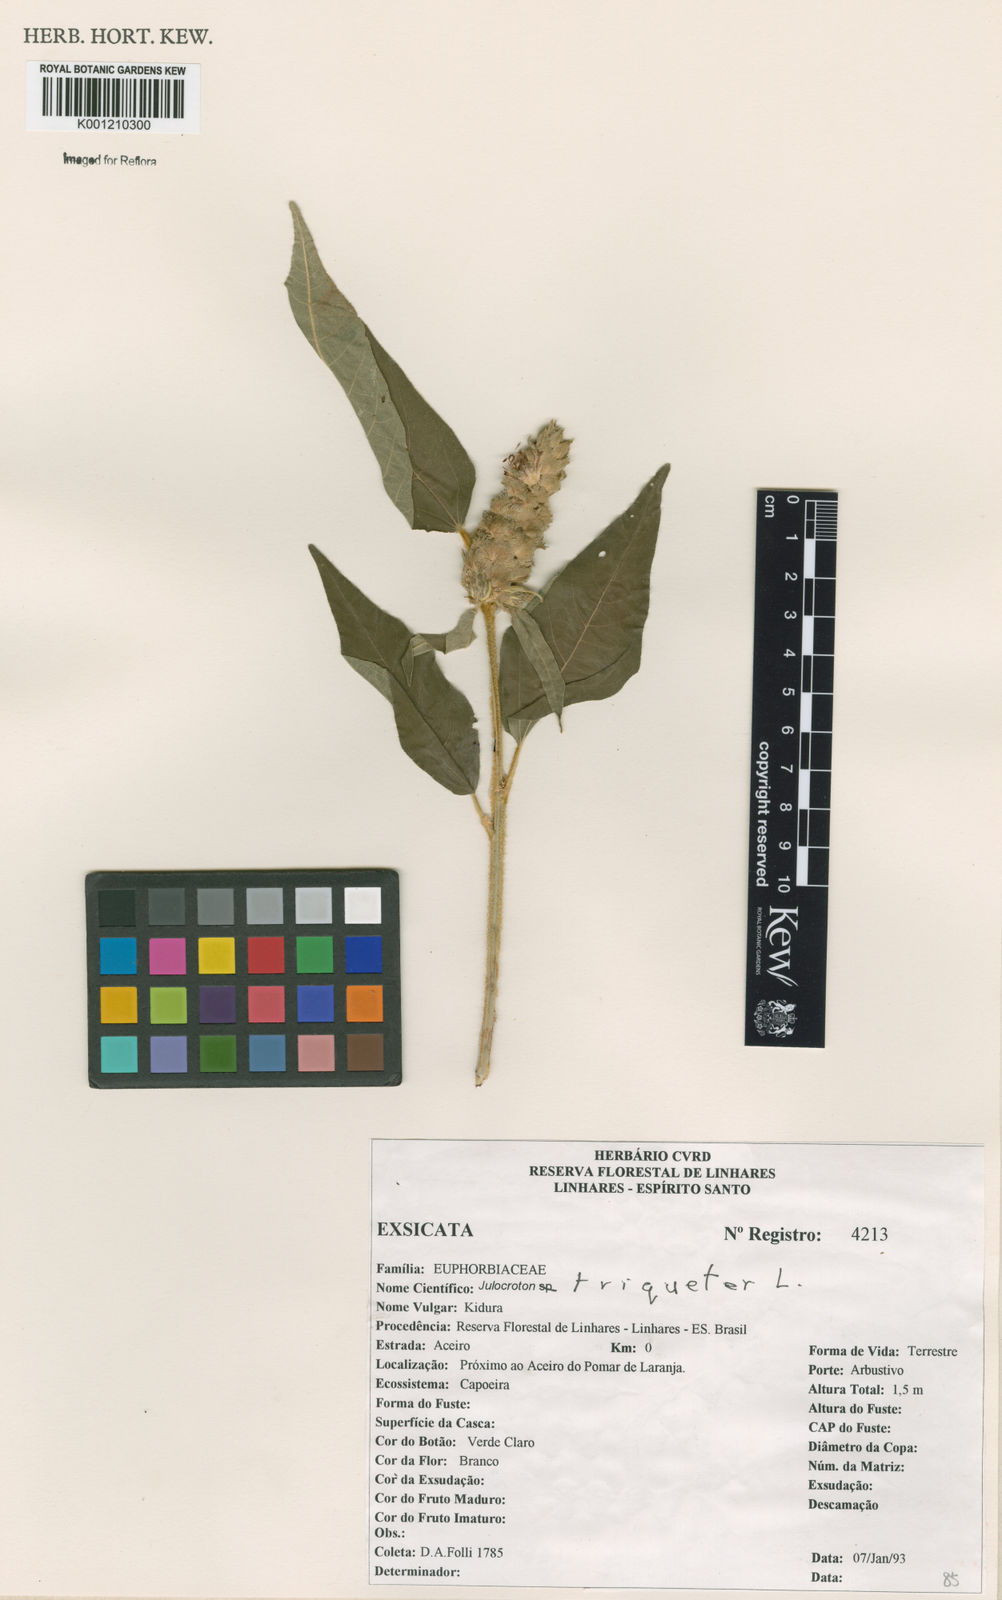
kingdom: Plantae
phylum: Tracheophyta
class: Magnoliopsida
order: Malpighiales
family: Euphorbiaceae
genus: Croton
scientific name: Croton triqueter
